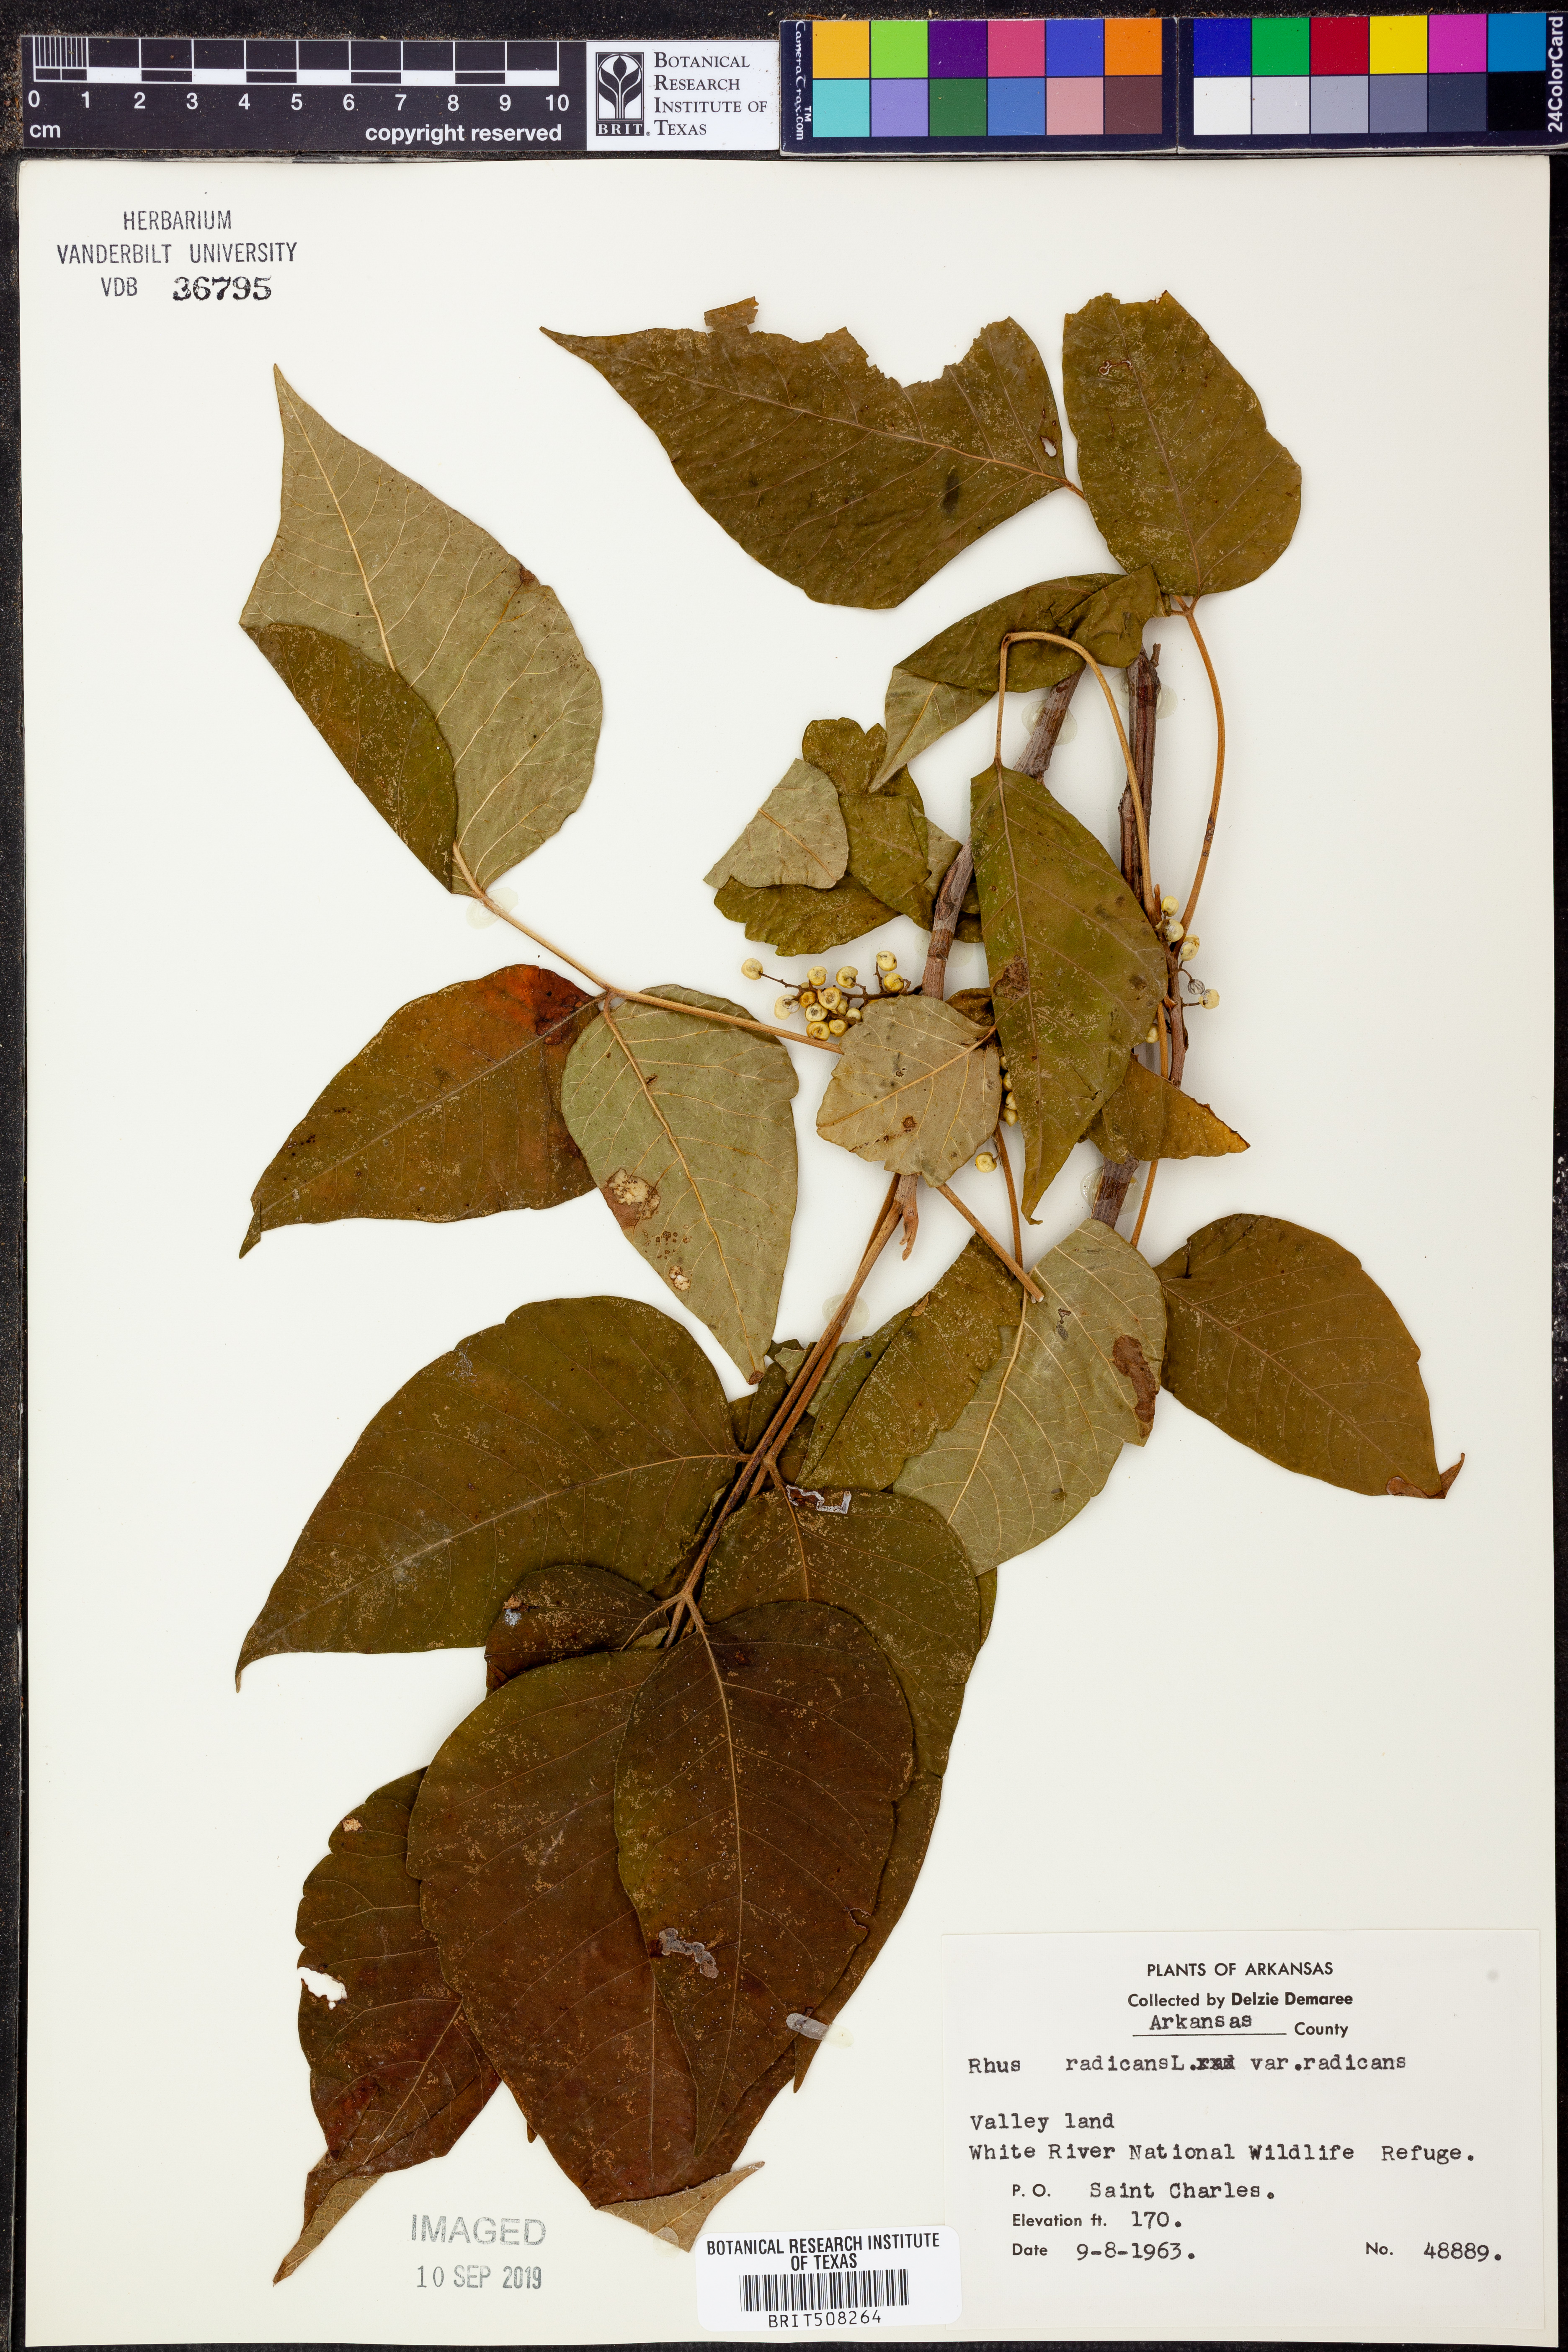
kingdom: Plantae
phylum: Tracheophyta
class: Magnoliopsida
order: Sapindales
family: Anacardiaceae
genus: Rhus
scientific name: Rhus
